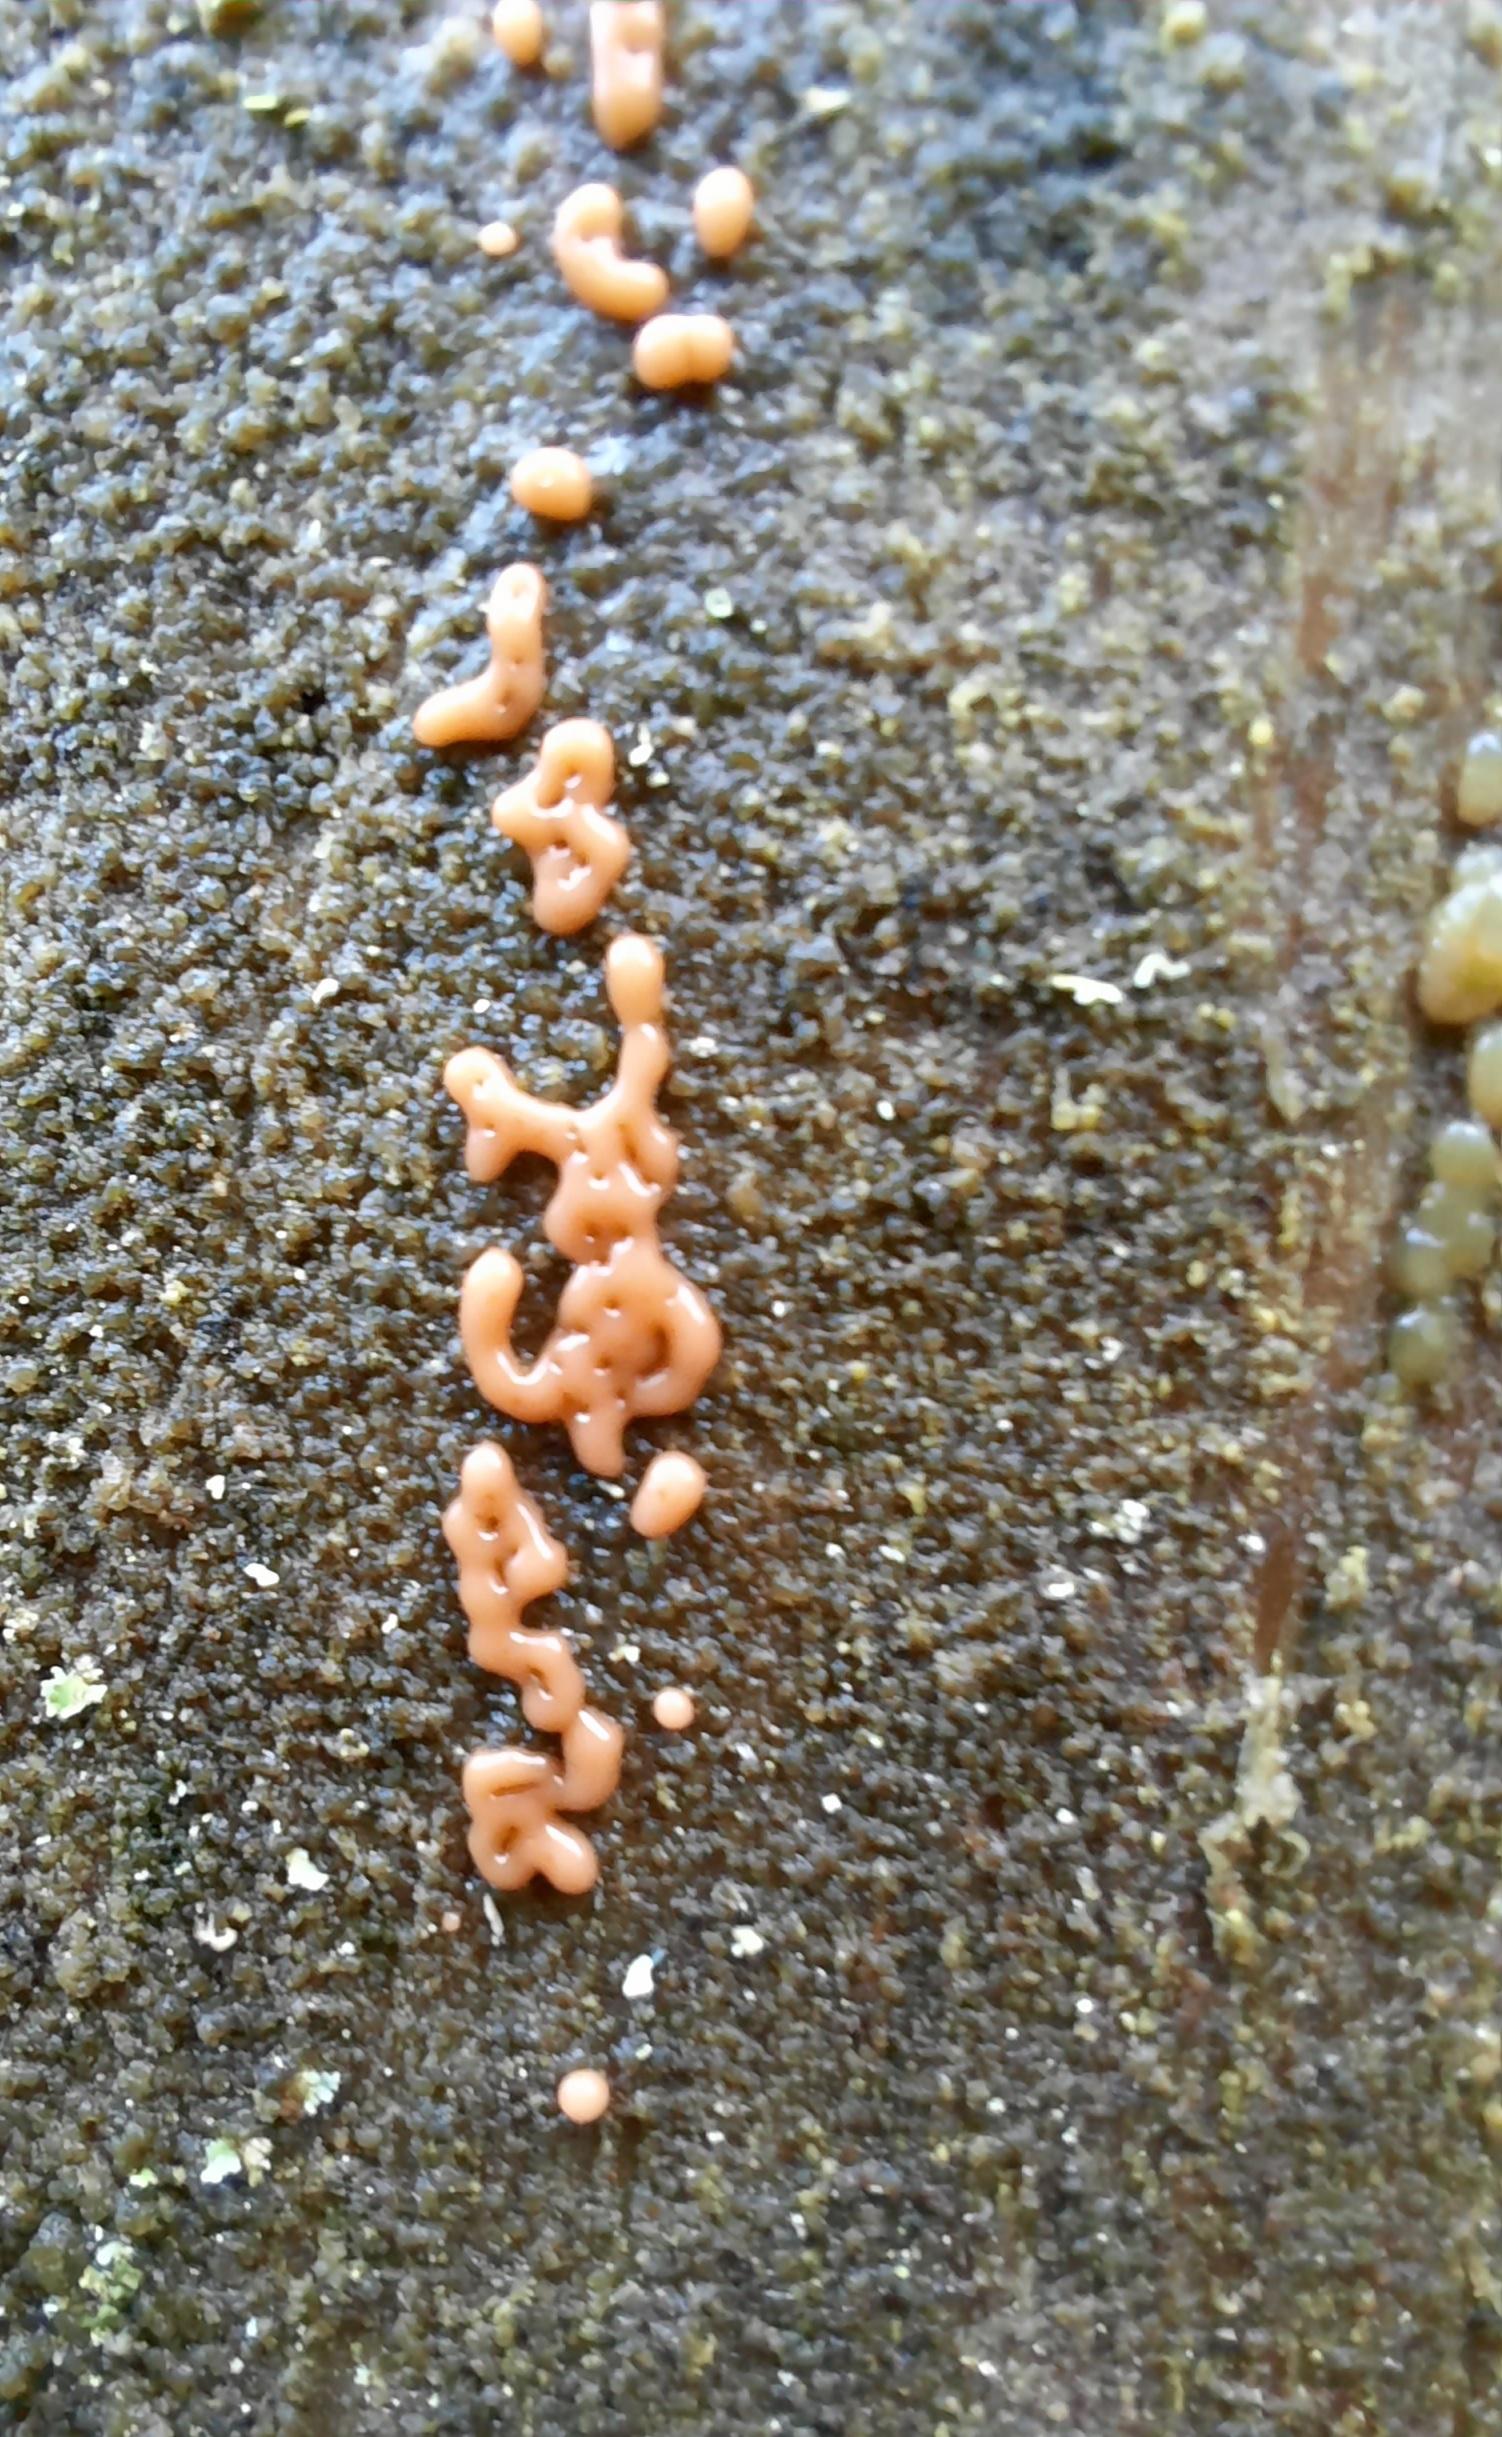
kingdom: Protozoa
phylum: Mycetozoa
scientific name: Mycetozoa
